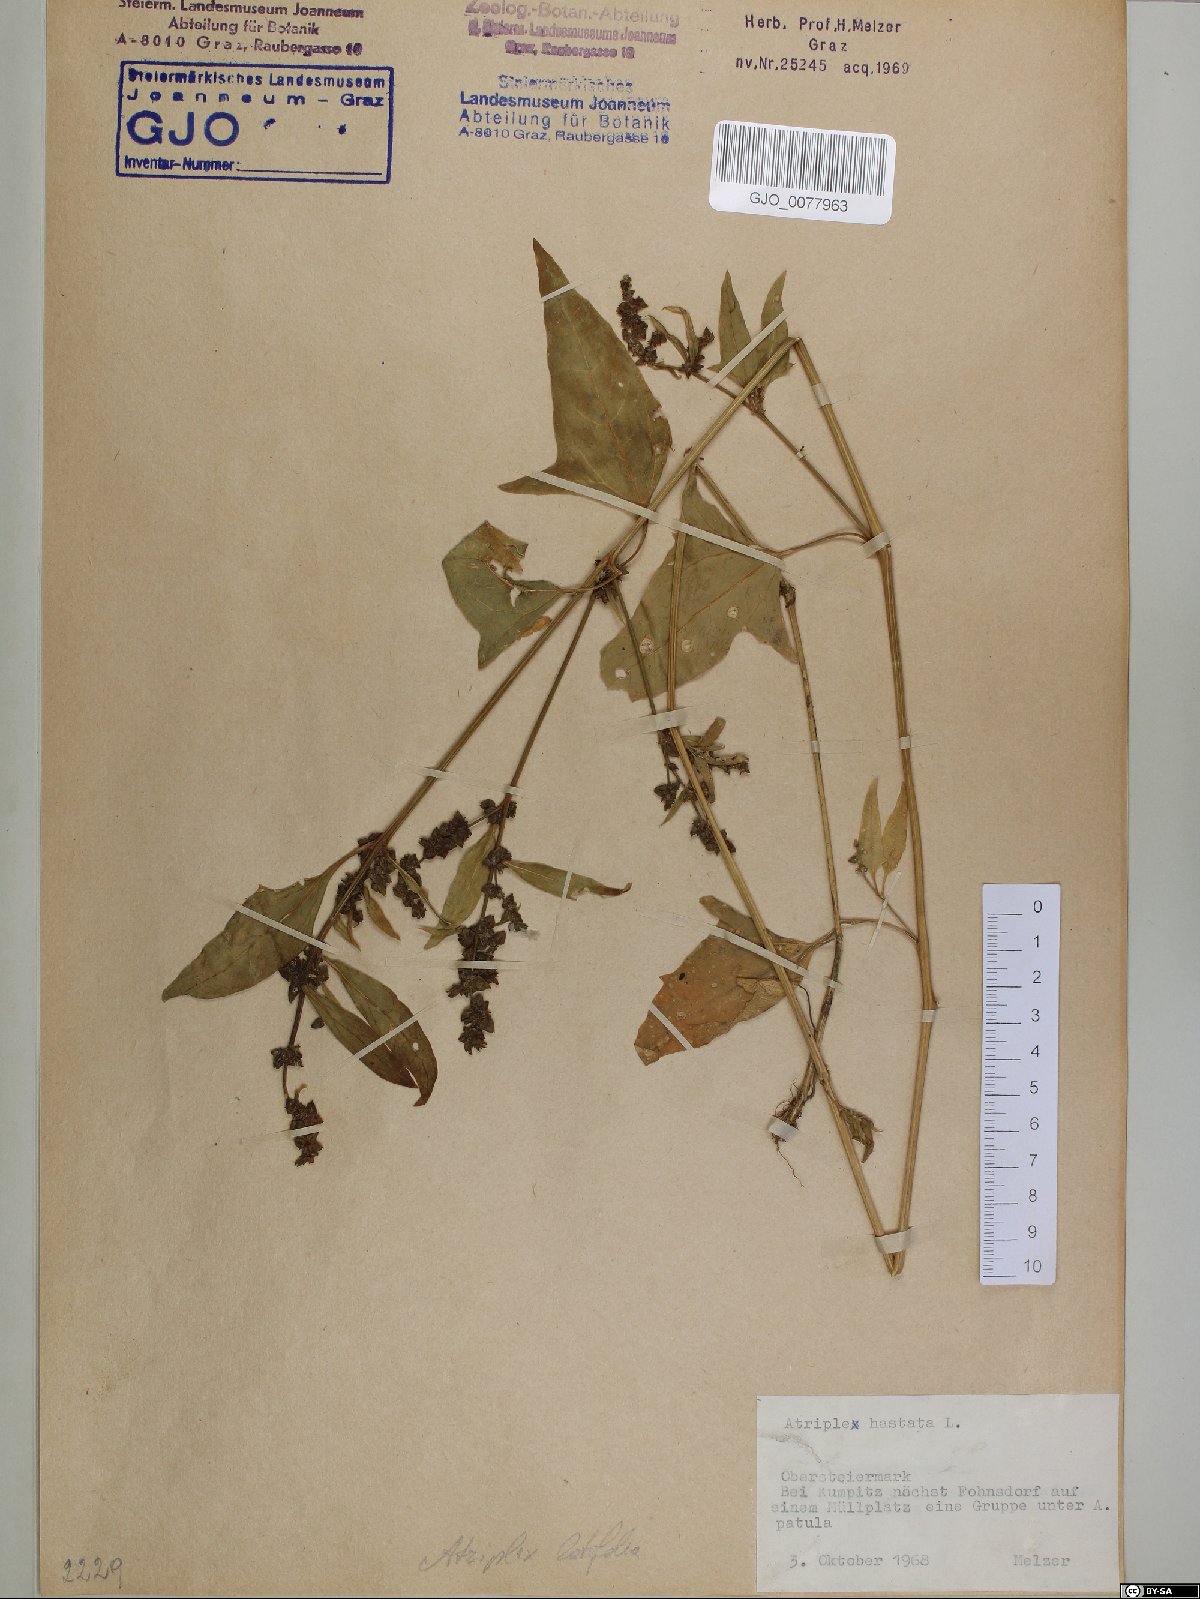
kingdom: Plantae
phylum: Tracheophyta
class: Magnoliopsida
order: Caryophyllales
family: Amaranthaceae
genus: Atriplex
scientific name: Atriplex calotheca
